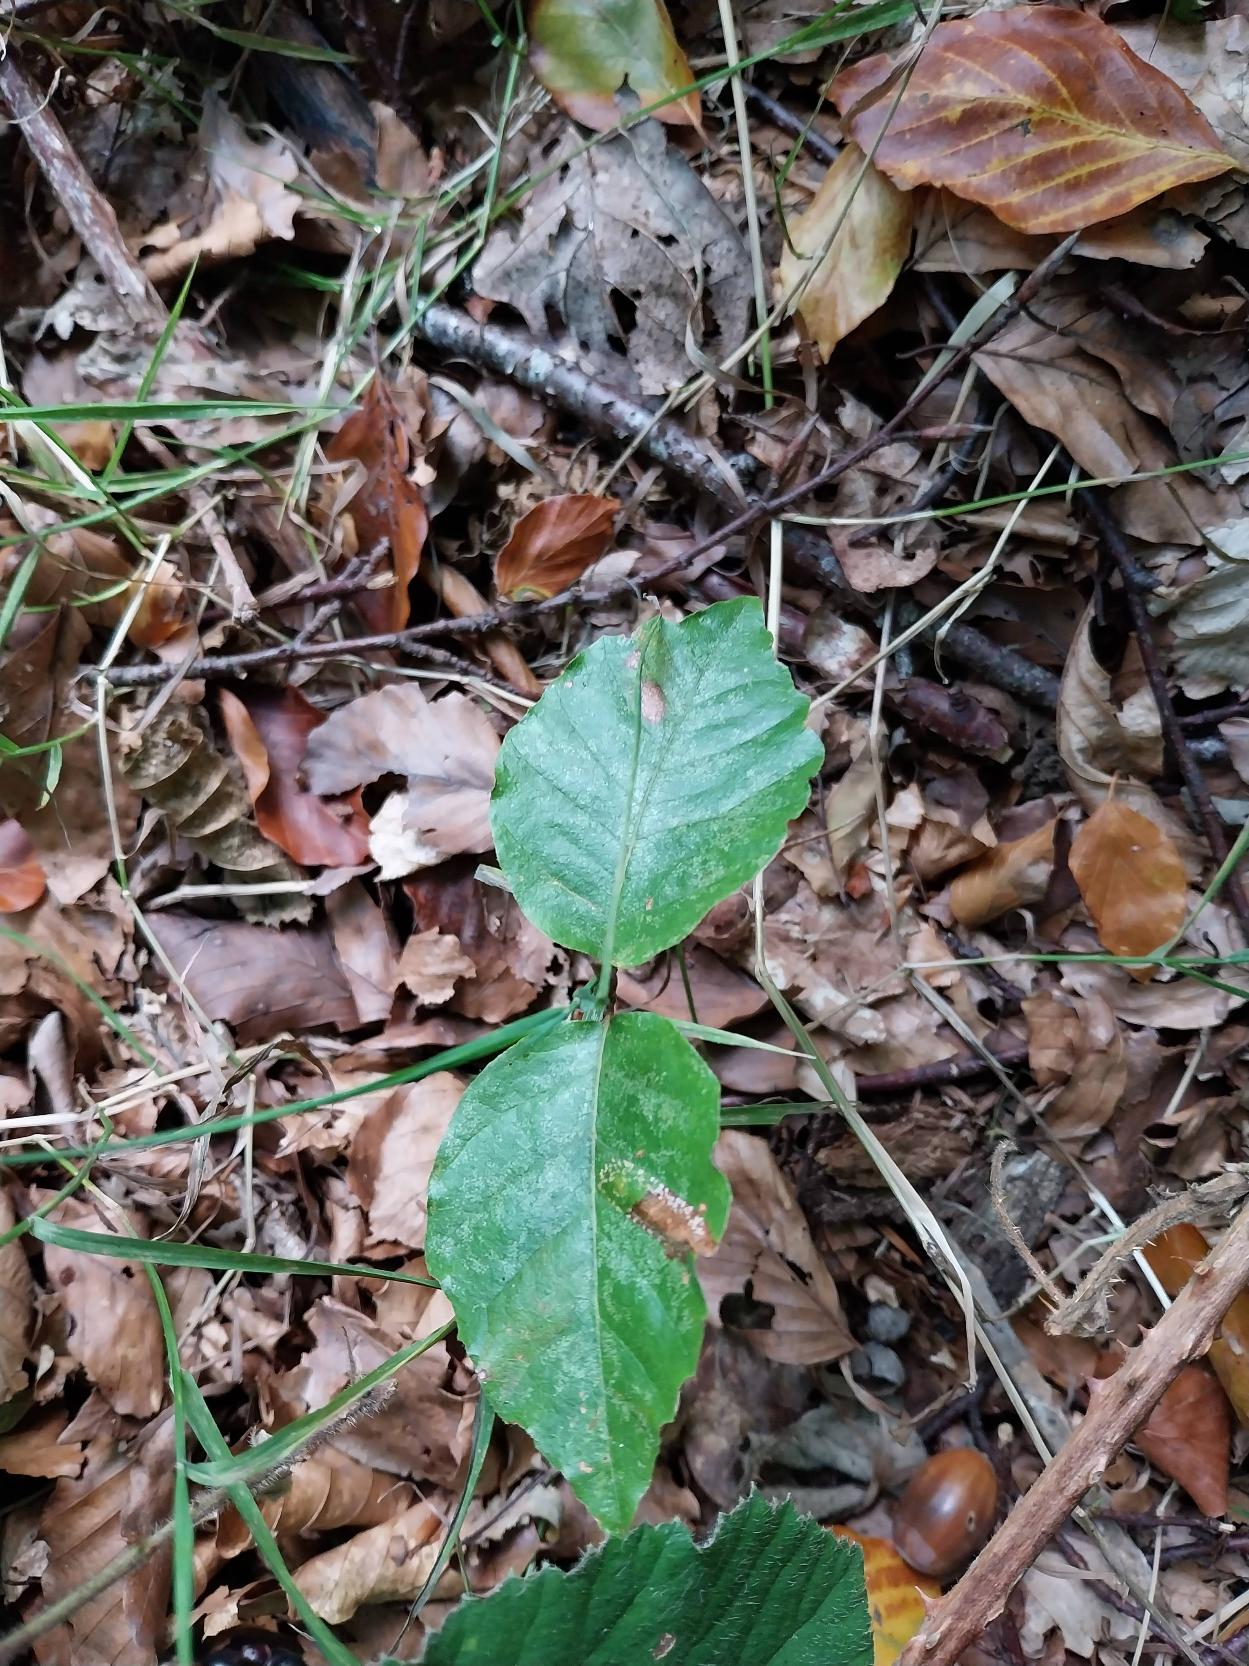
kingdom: Plantae
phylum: Tracheophyta
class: Magnoliopsida
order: Fagales
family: Fagaceae
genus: Fagus
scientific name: Fagus sylvatica
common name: Bøg
